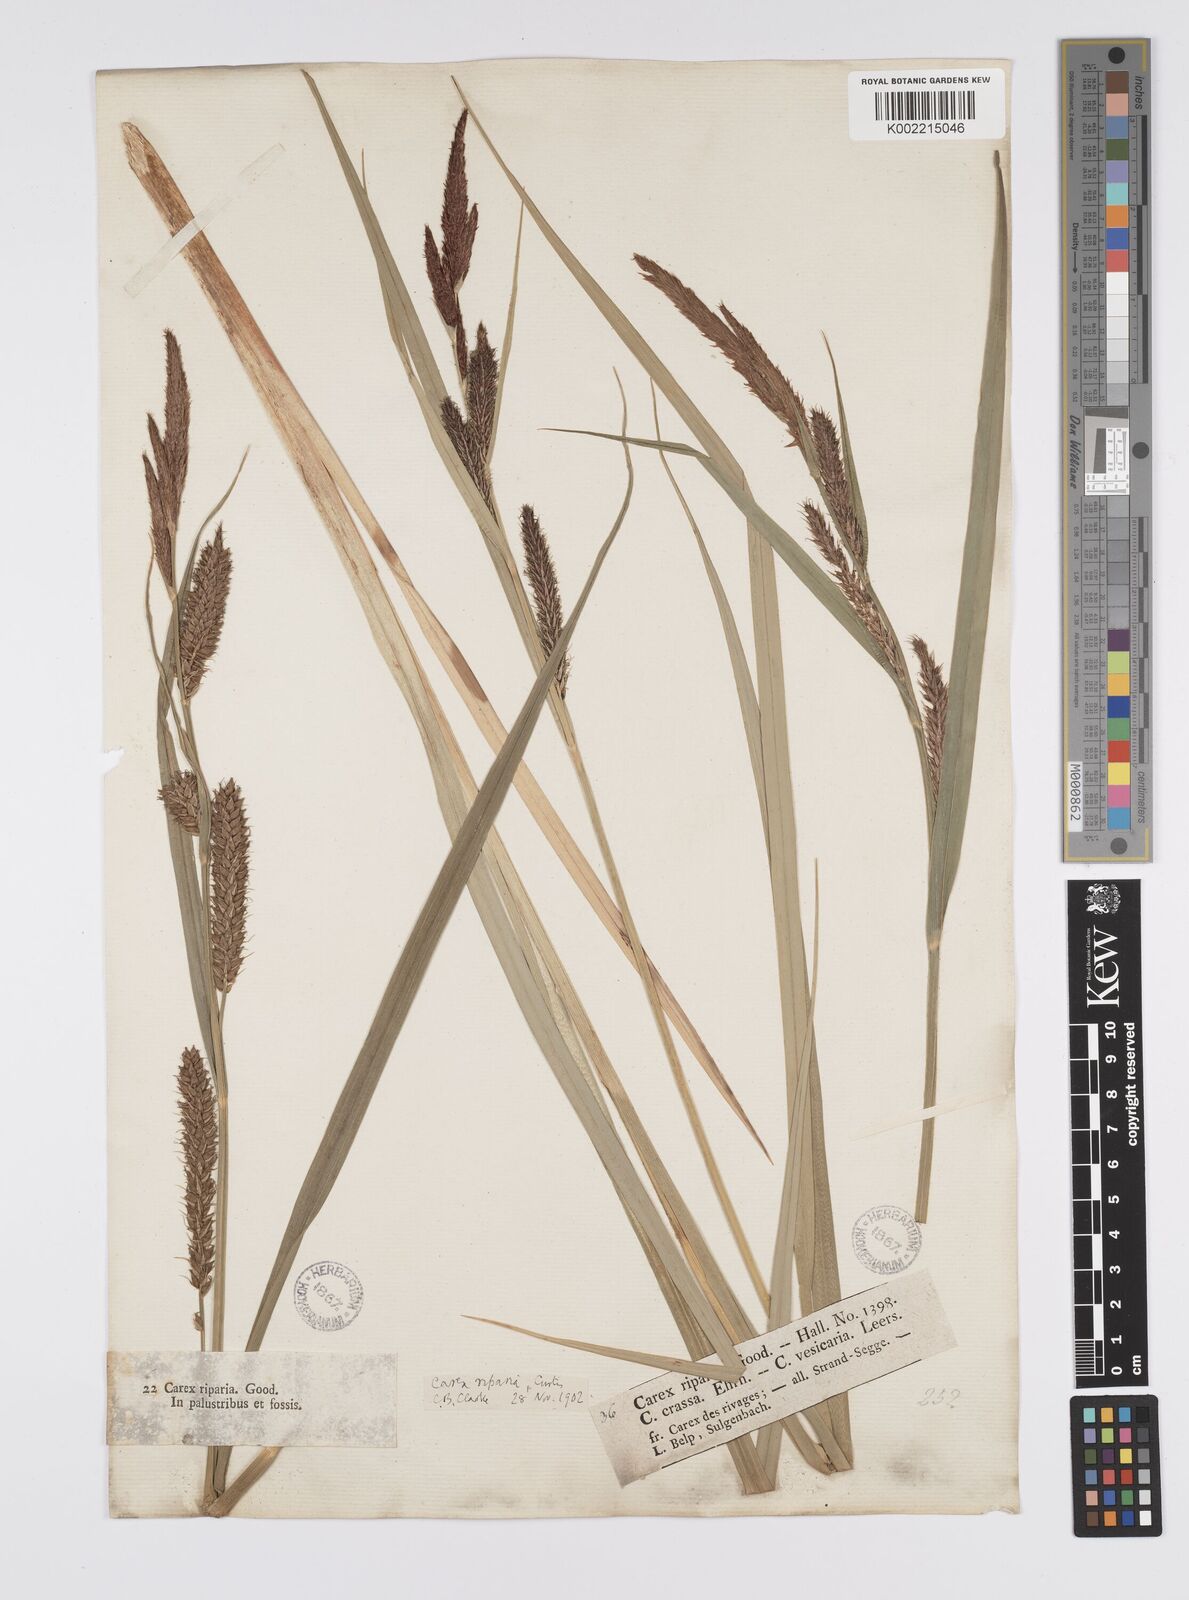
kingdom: Plantae
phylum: Tracheophyta
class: Liliopsida
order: Poales
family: Cyperaceae
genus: Carex
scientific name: Carex riparia
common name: Greater pond-sedge
